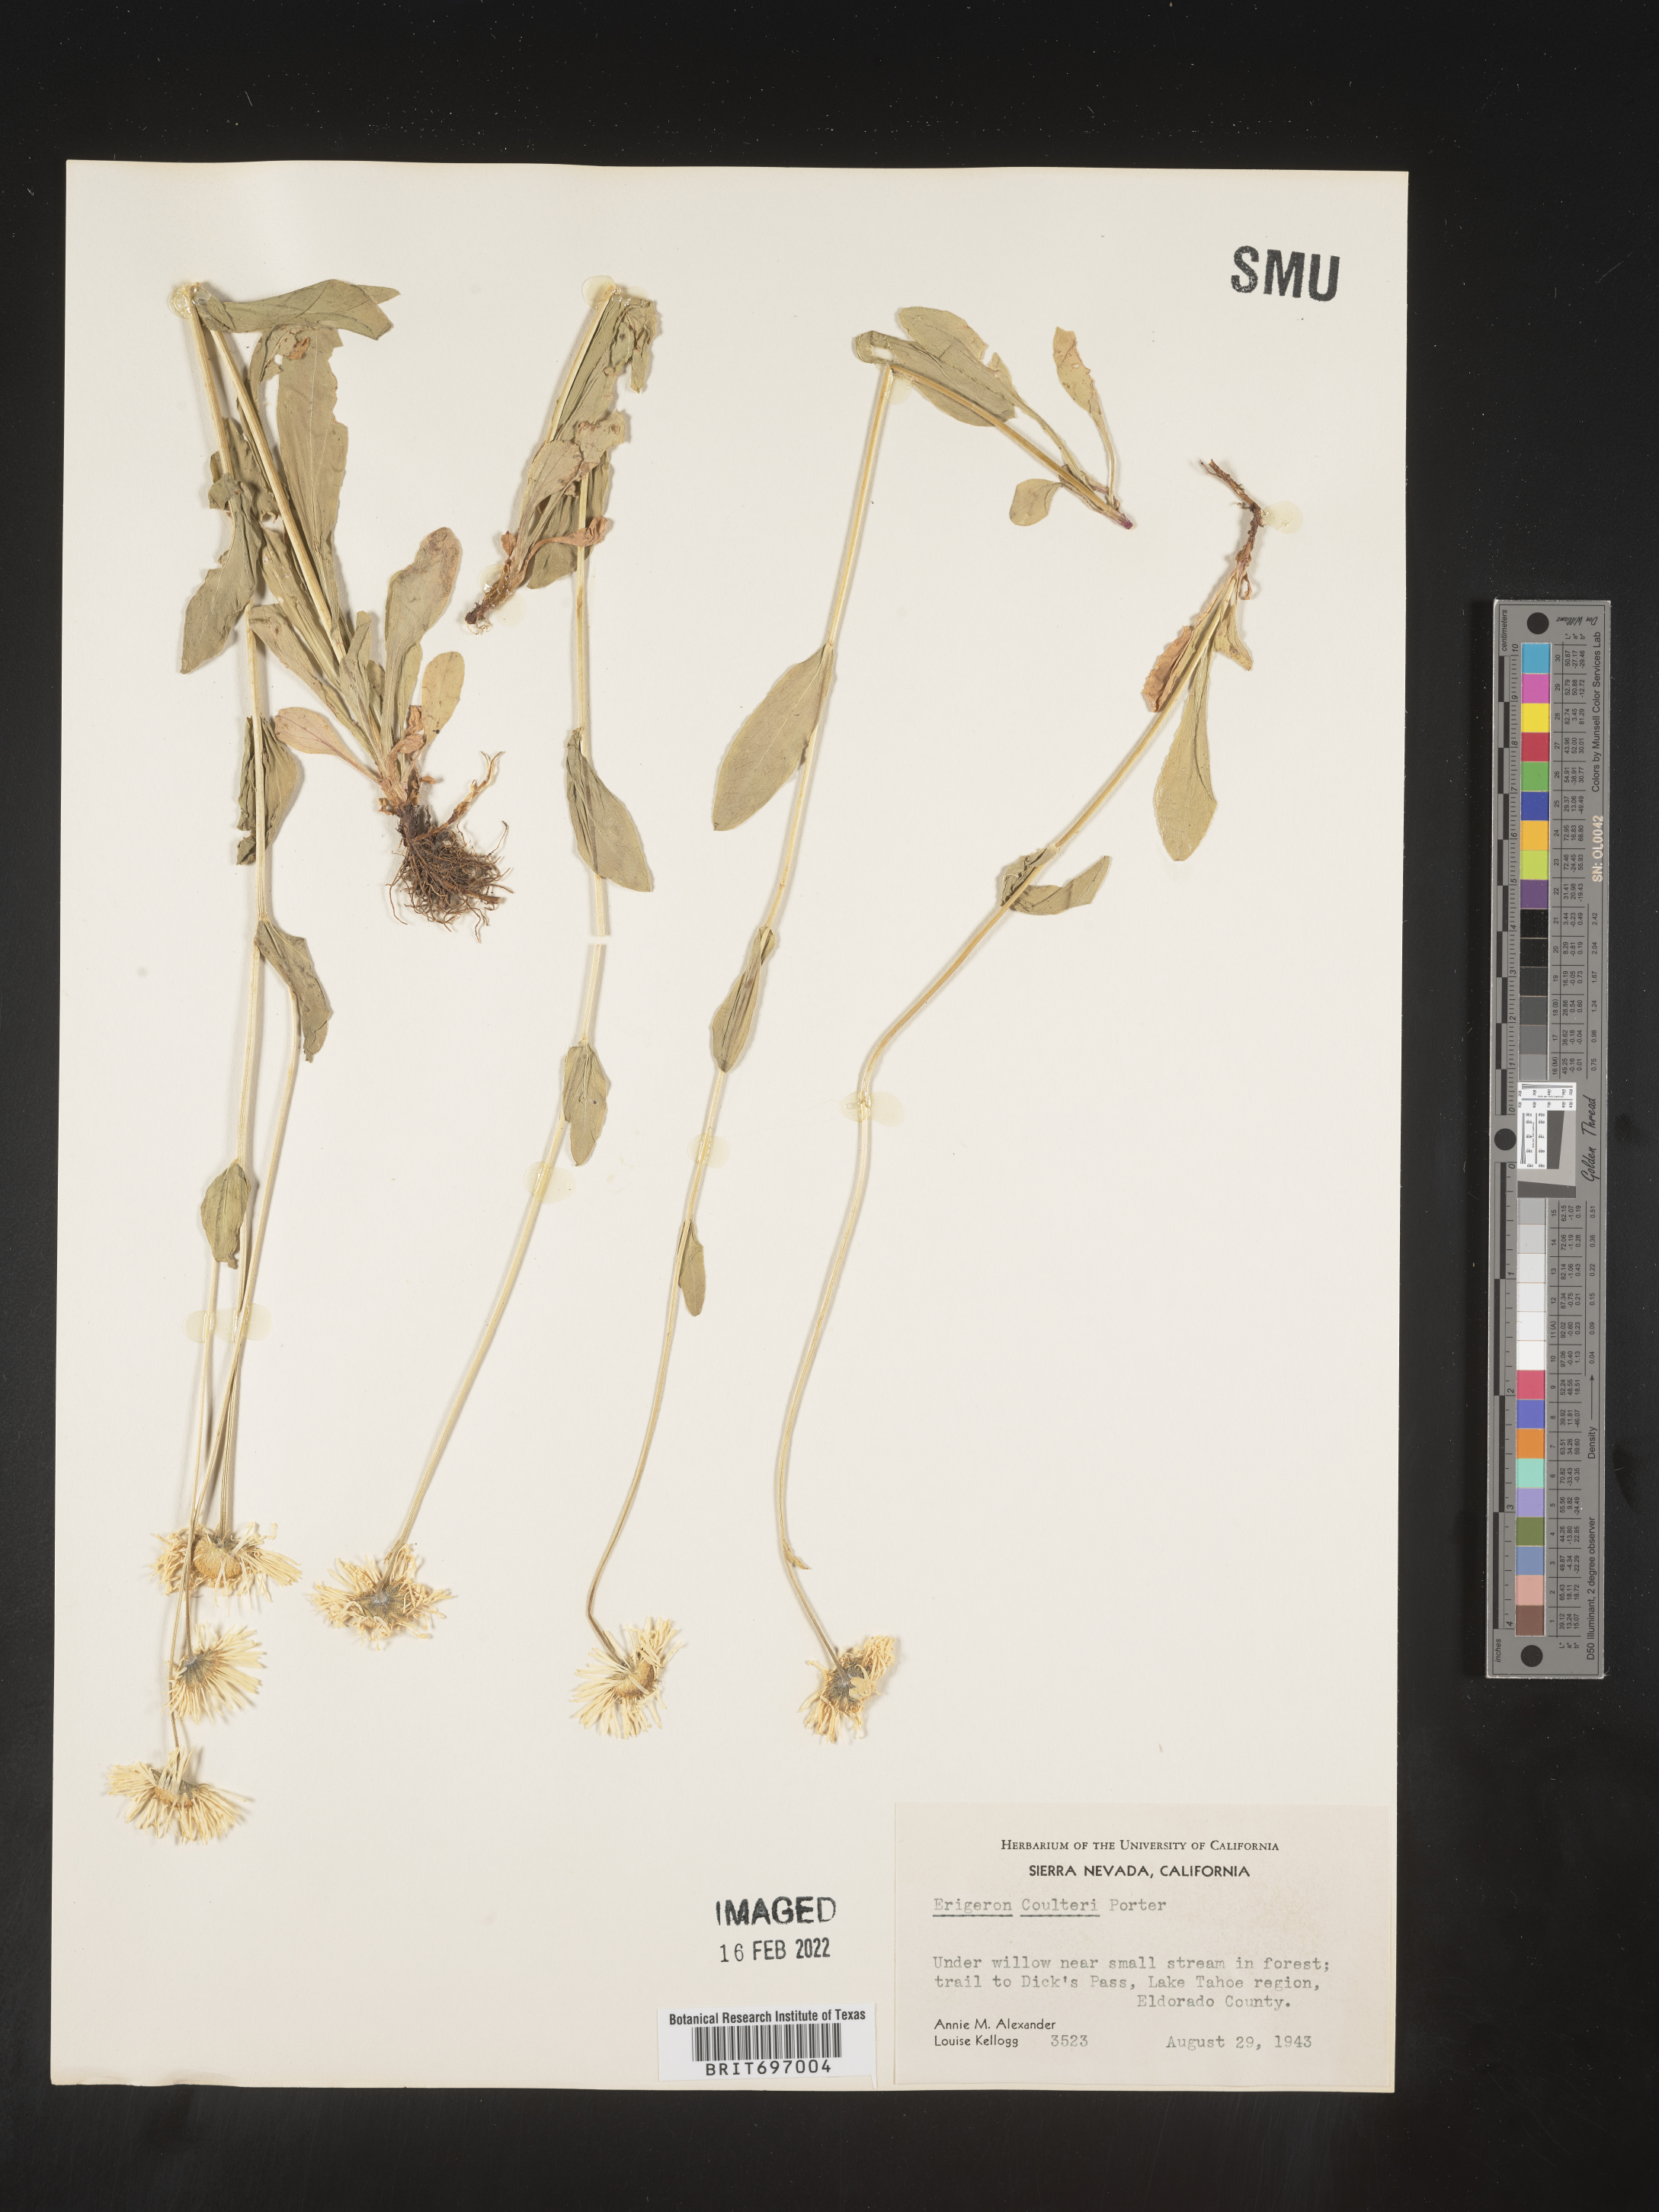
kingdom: Plantae
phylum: Tracheophyta
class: Magnoliopsida
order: Asterales
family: Asteraceae
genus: Erigeron
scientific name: Erigeron coulteri
